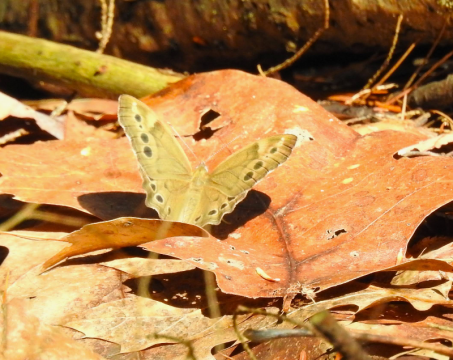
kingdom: Animalia
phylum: Arthropoda
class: Insecta
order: Lepidoptera
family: Nymphalidae
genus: Lethe
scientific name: Lethe anthedon
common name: Northern Pearly-Eye
